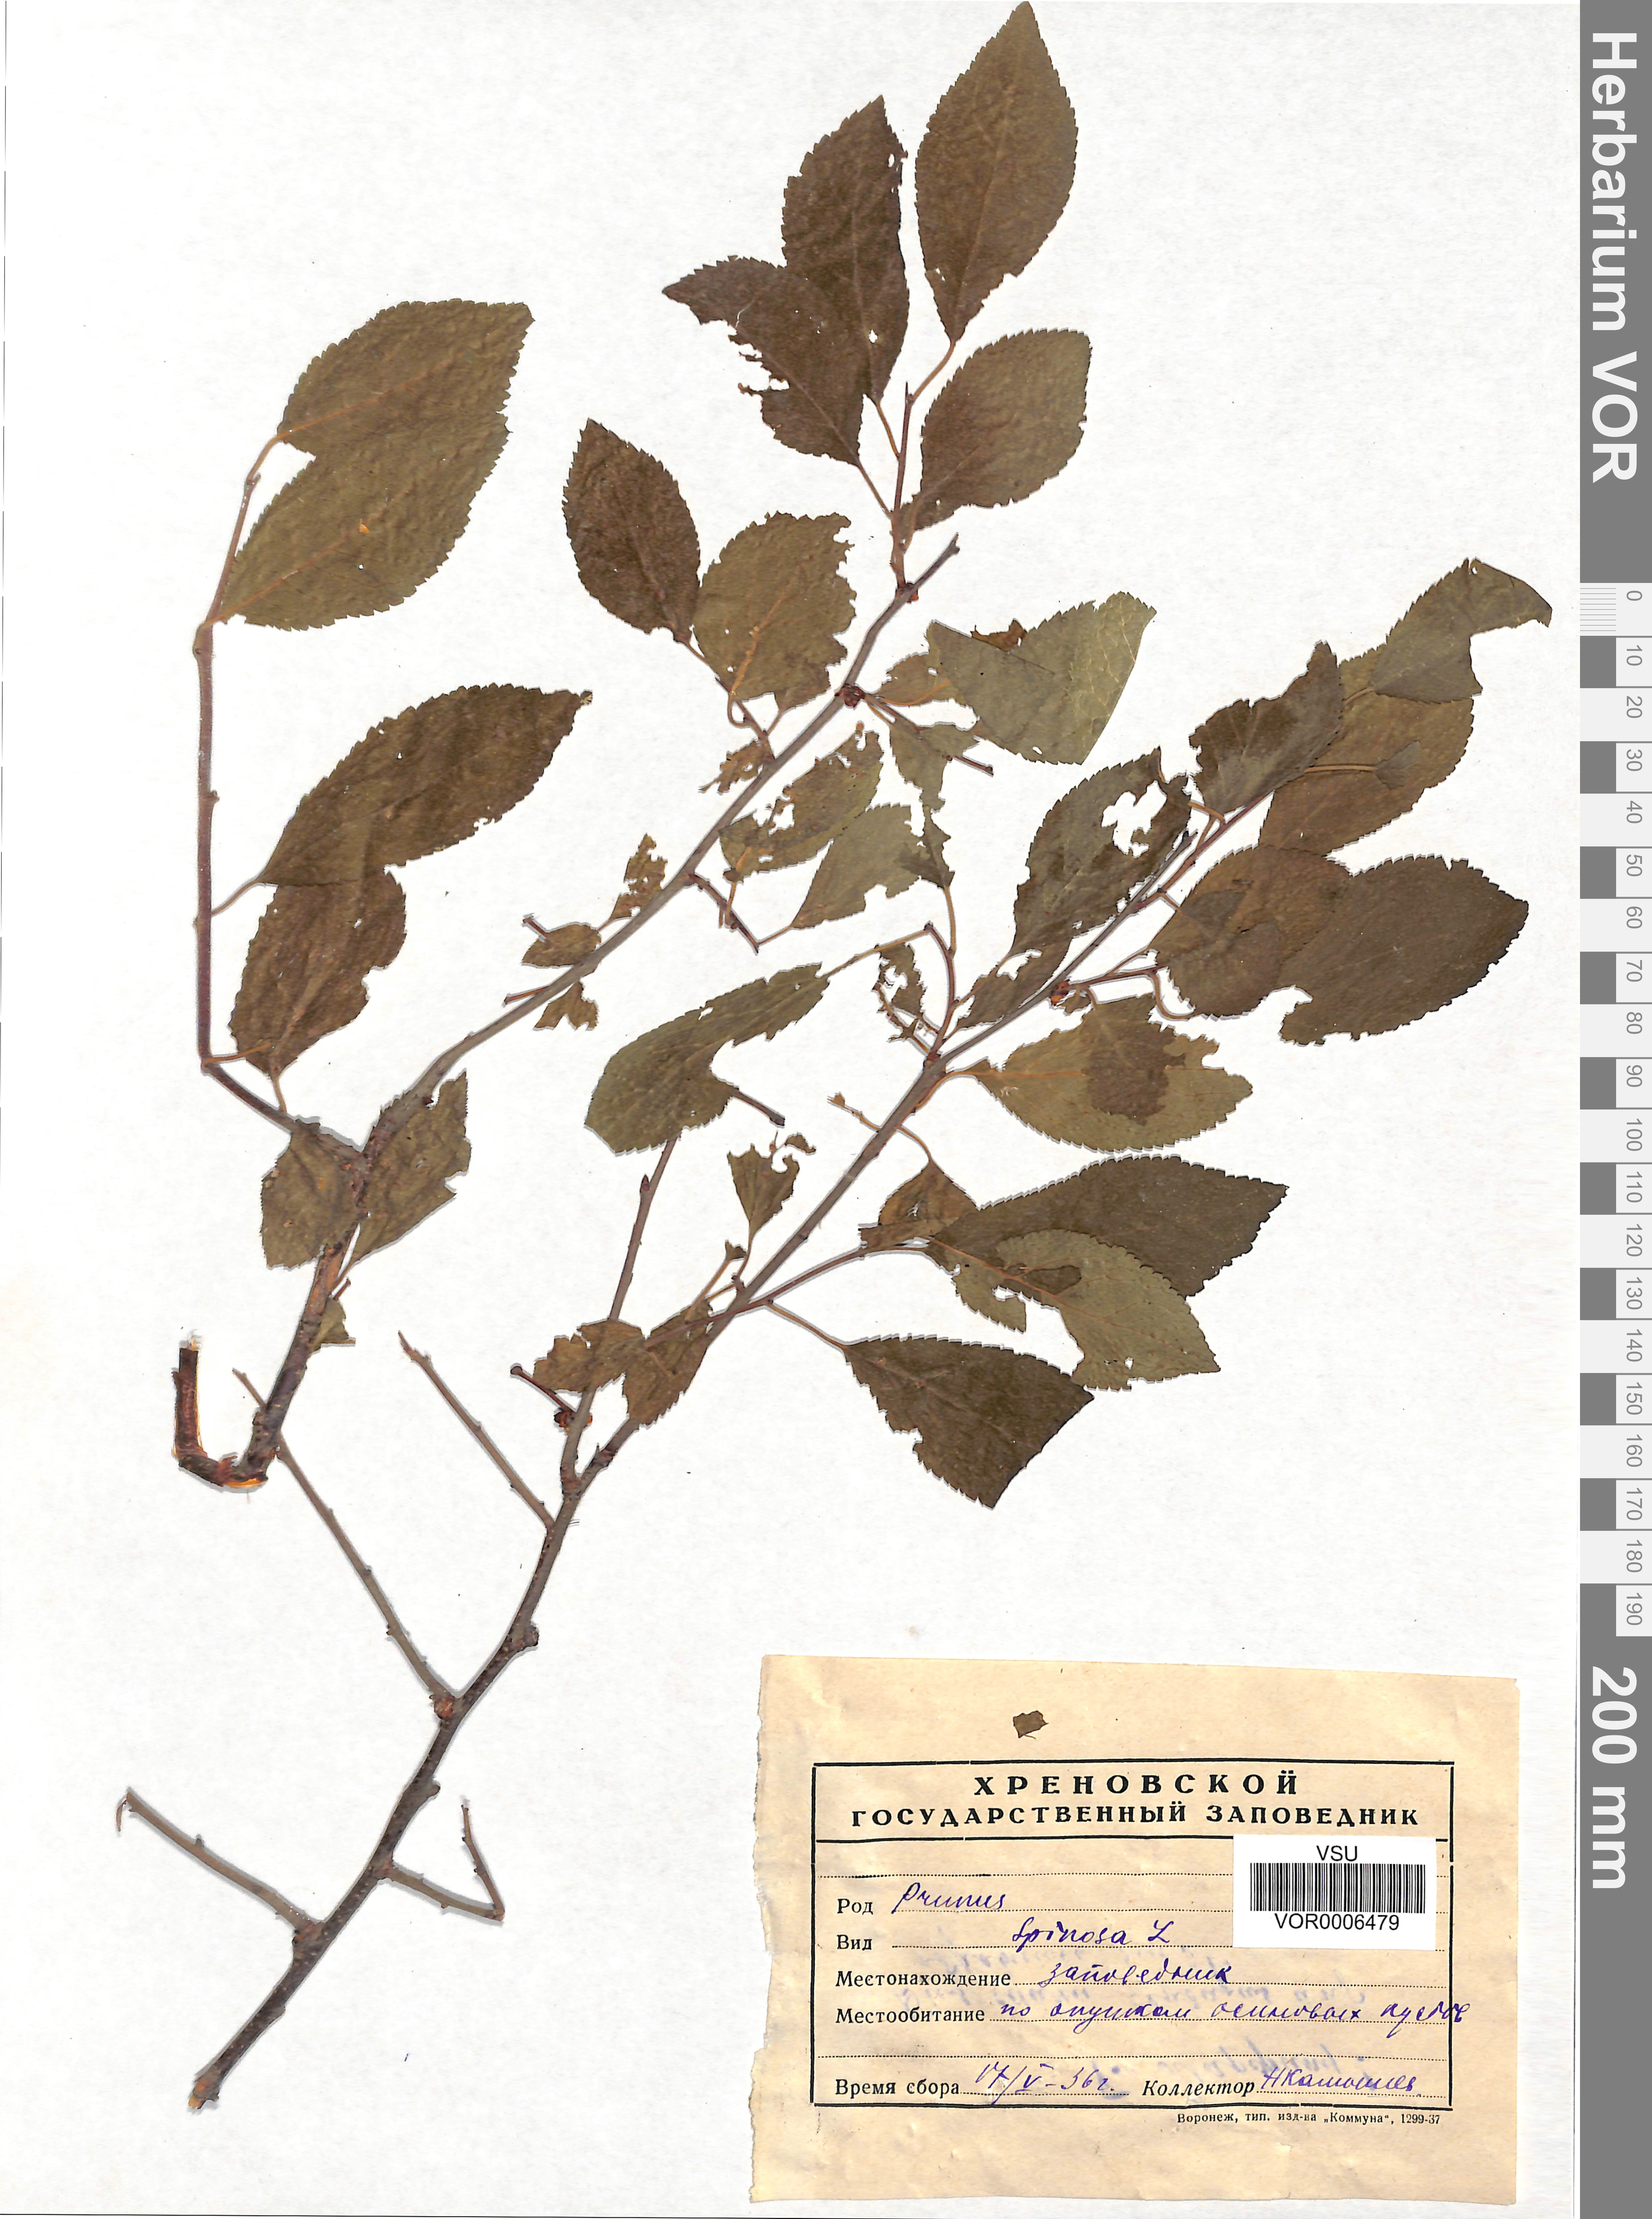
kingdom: Plantae
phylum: Tracheophyta
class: Magnoliopsida
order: Rosales
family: Rosaceae
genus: Prunus
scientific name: Prunus spinosa
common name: Blackthorn
